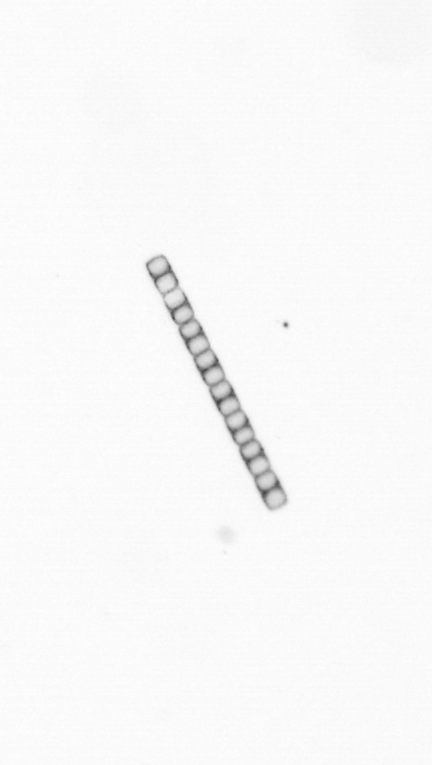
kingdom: Chromista
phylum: Ochrophyta
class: Bacillariophyceae
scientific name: Bacillariophyceae
